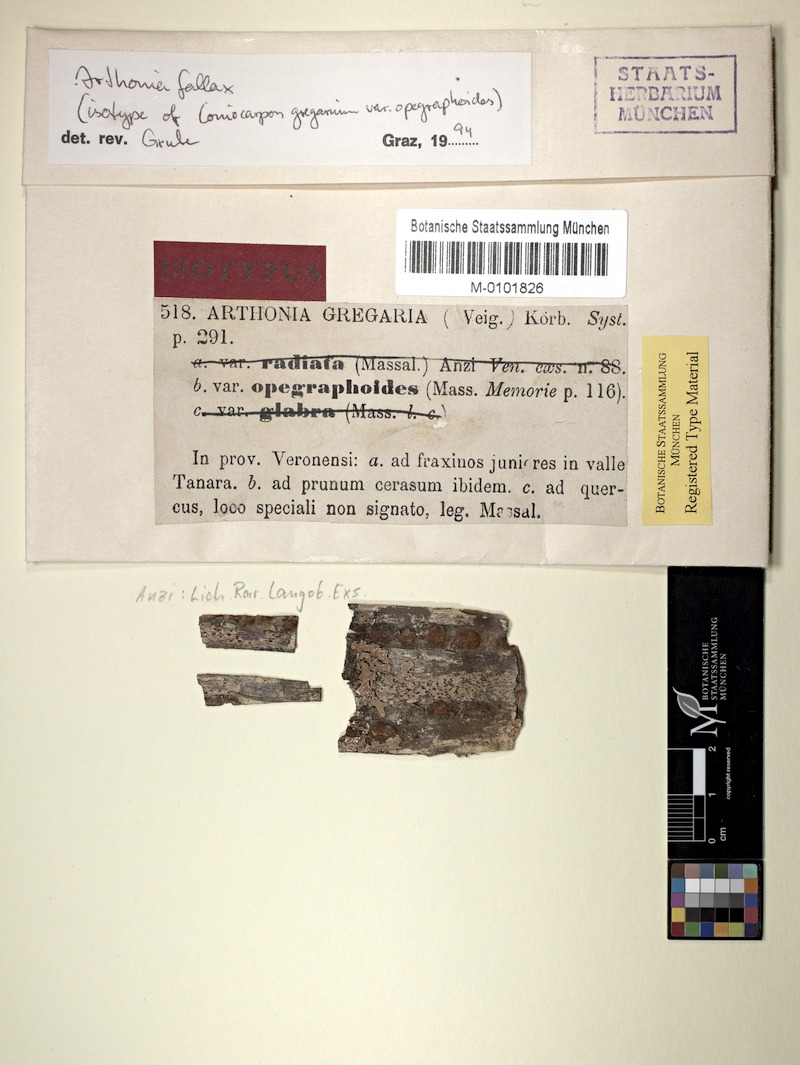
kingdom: Fungi
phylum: Ascomycota
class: Arthoniomycetes
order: Arthoniales
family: Arthoniaceae
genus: Coniocarpon
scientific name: Coniocarpon fallax
